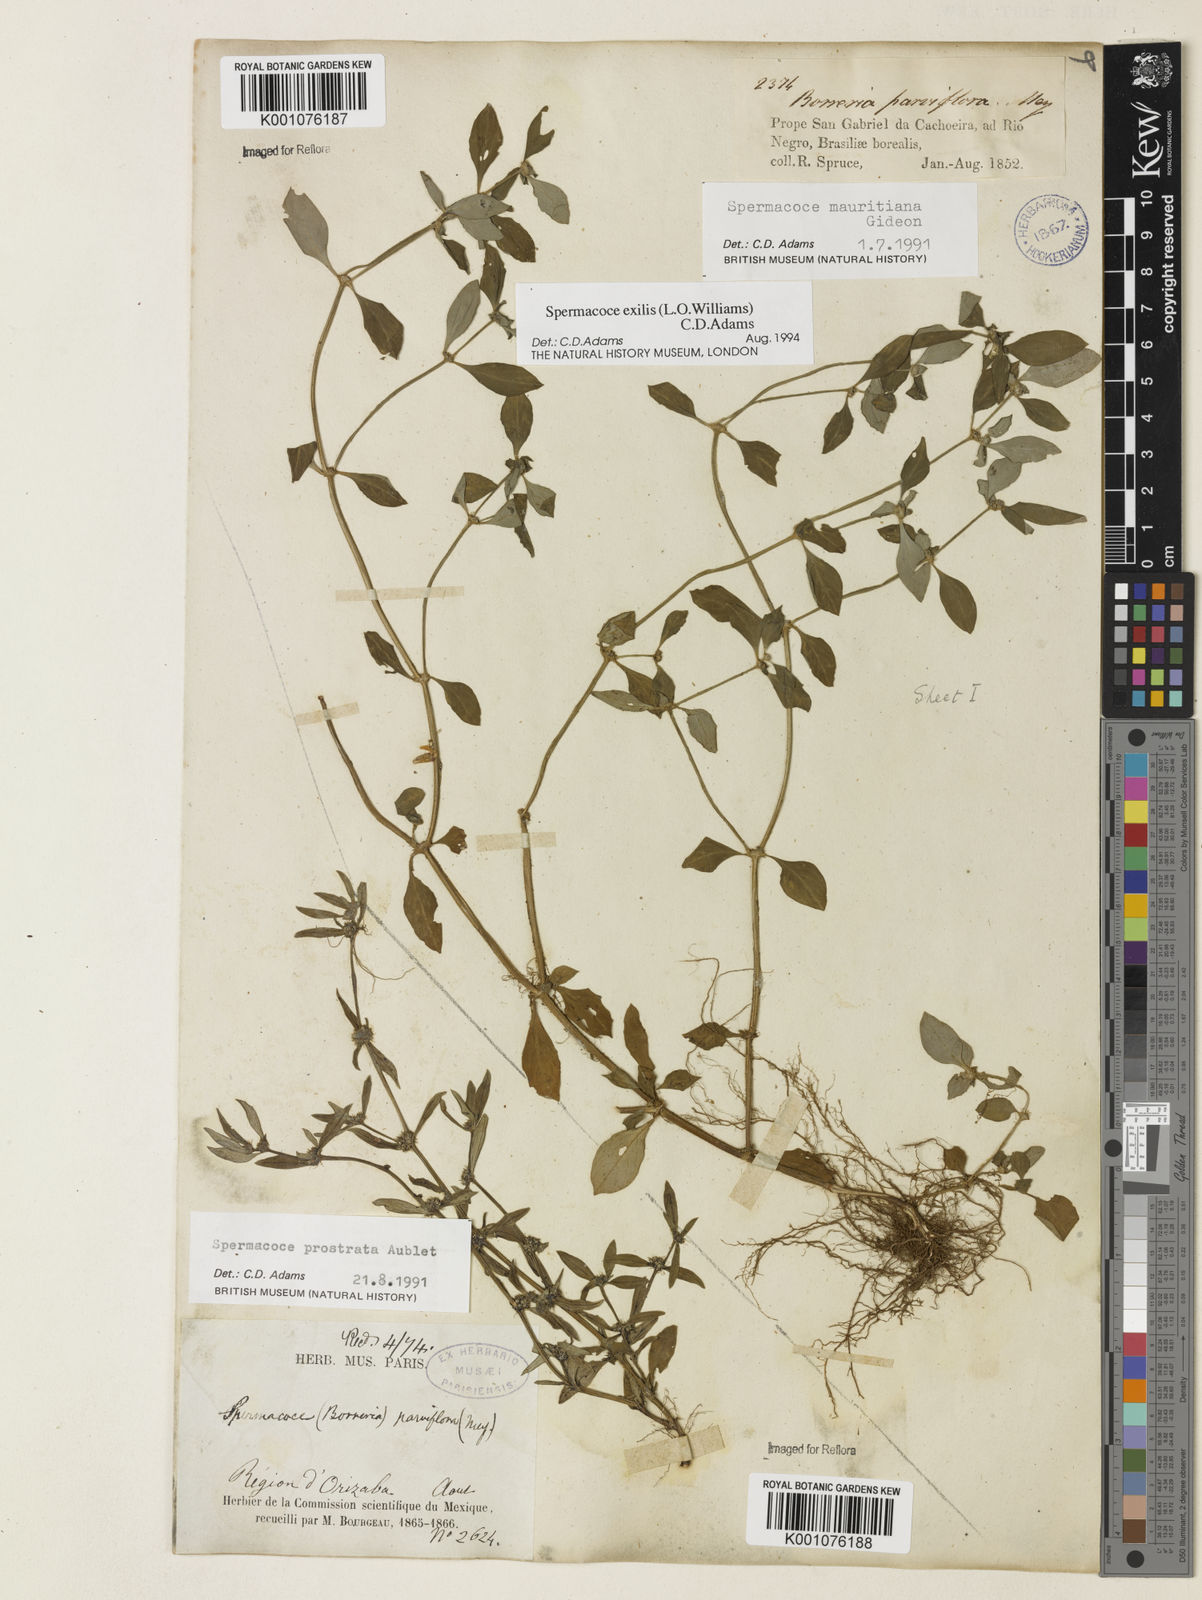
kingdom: Plantae
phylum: Tracheophyta
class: Magnoliopsida
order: Gentianales
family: Rubiaceae
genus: Spermacoce
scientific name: Spermacoce exilis
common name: Pacific false buttonweed
